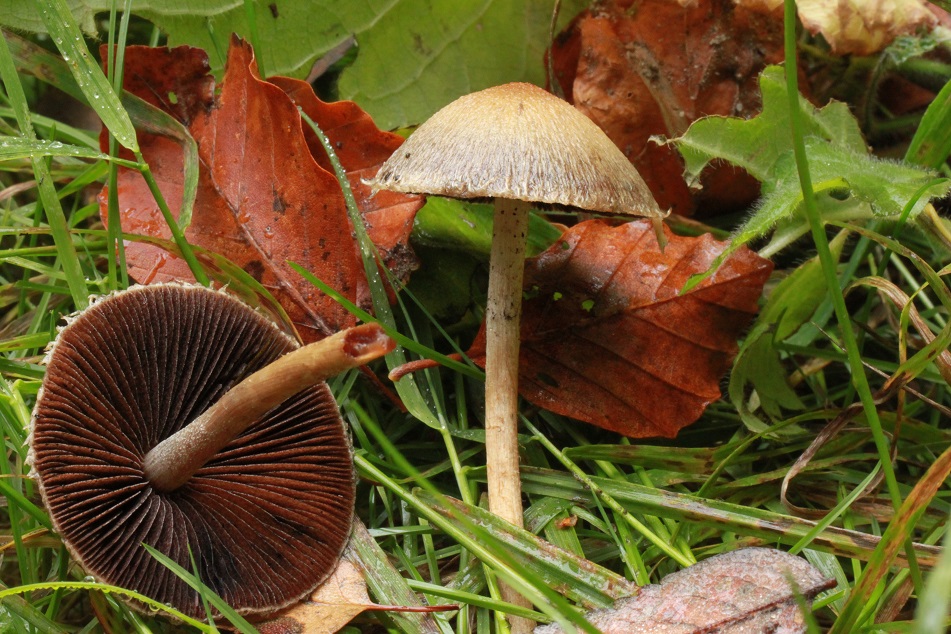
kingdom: Fungi
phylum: Basidiomycota
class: Agaricomycetes
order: Agaricales
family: Psathyrellaceae
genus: Lacrymaria
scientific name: Lacrymaria lacrymabunda
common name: grædende mørkhat
